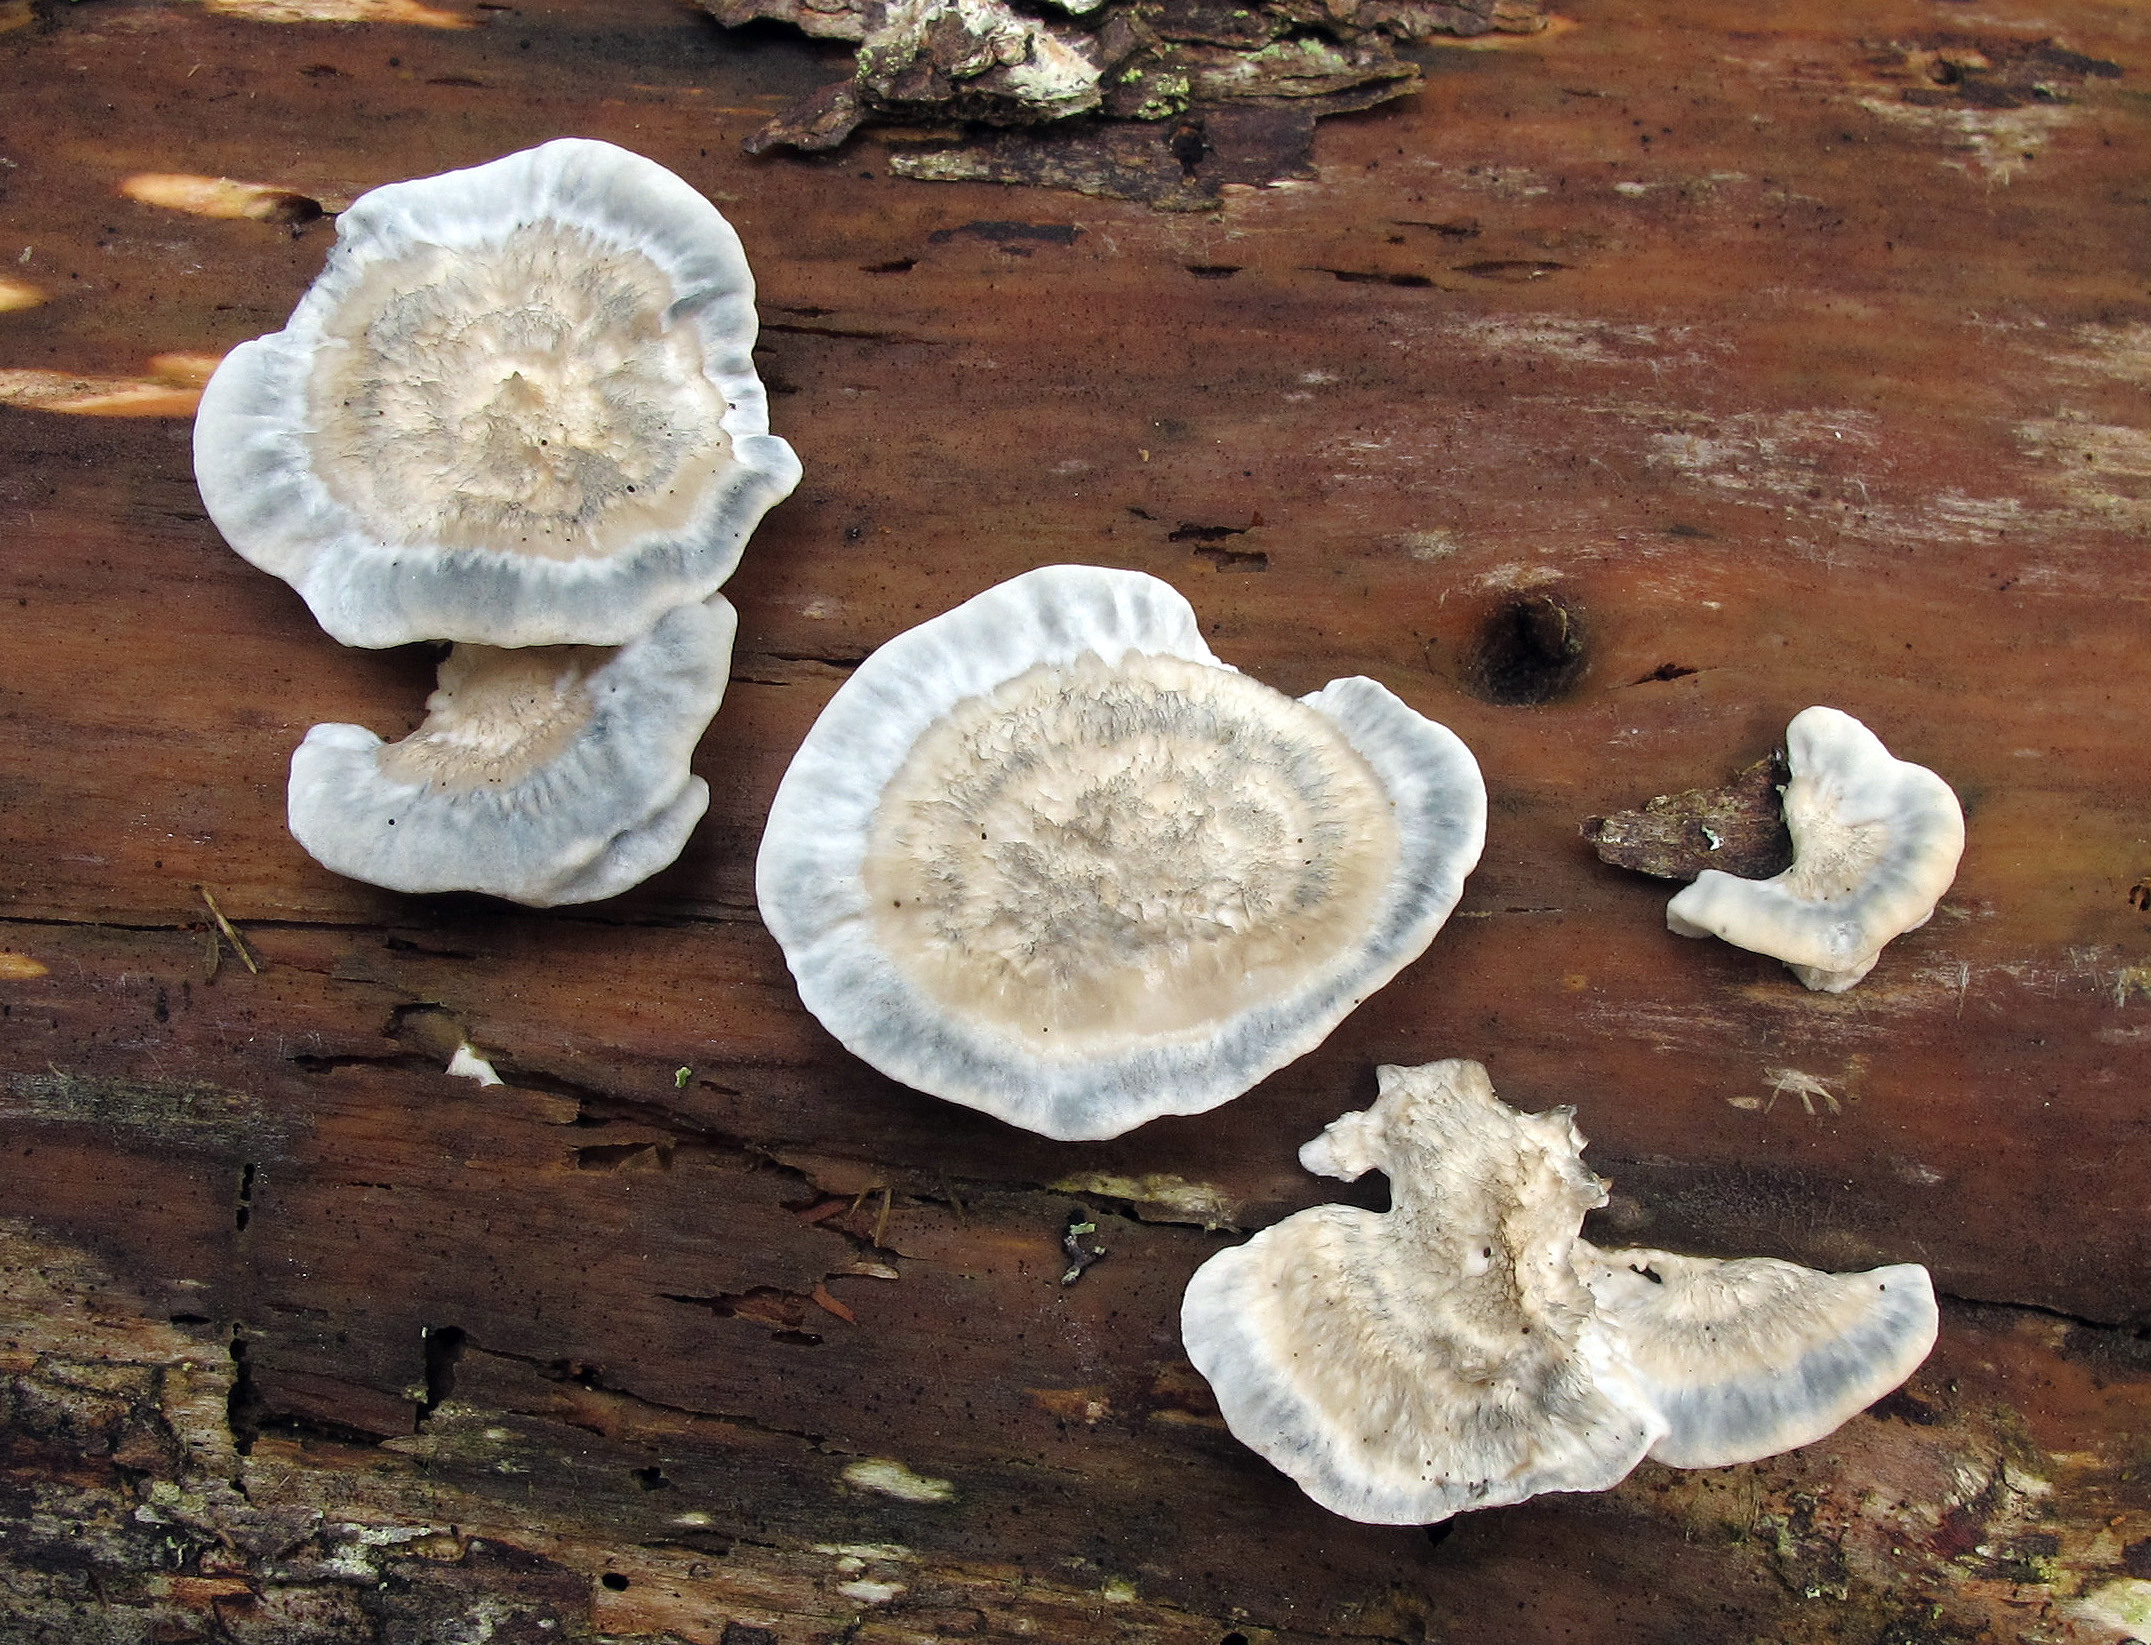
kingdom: Fungi
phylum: Basidiomycota
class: Agaricomycetes
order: Polyporales
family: Polyporaceae
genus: Cyanosporus
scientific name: Cyanosporus caesius
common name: Blue cheese polypore
